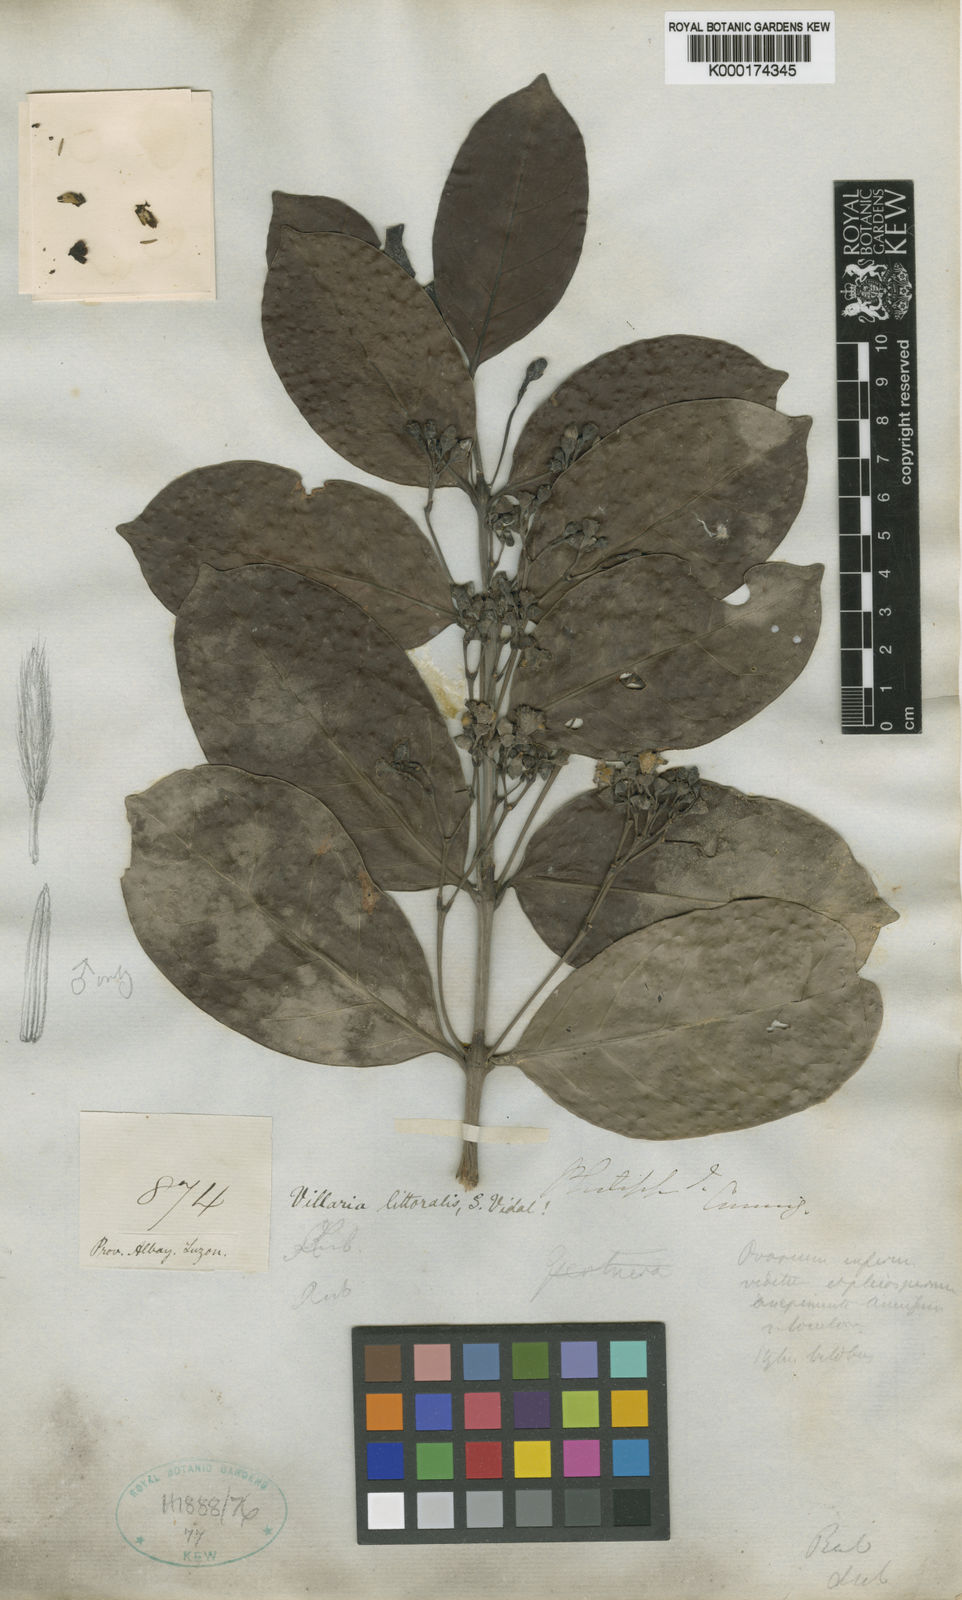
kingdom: Plantae
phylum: Tracheophyta
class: Magnoliopsida
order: Gentianales
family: Rubiaceae
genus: Villaria
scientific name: Villaria odorata
